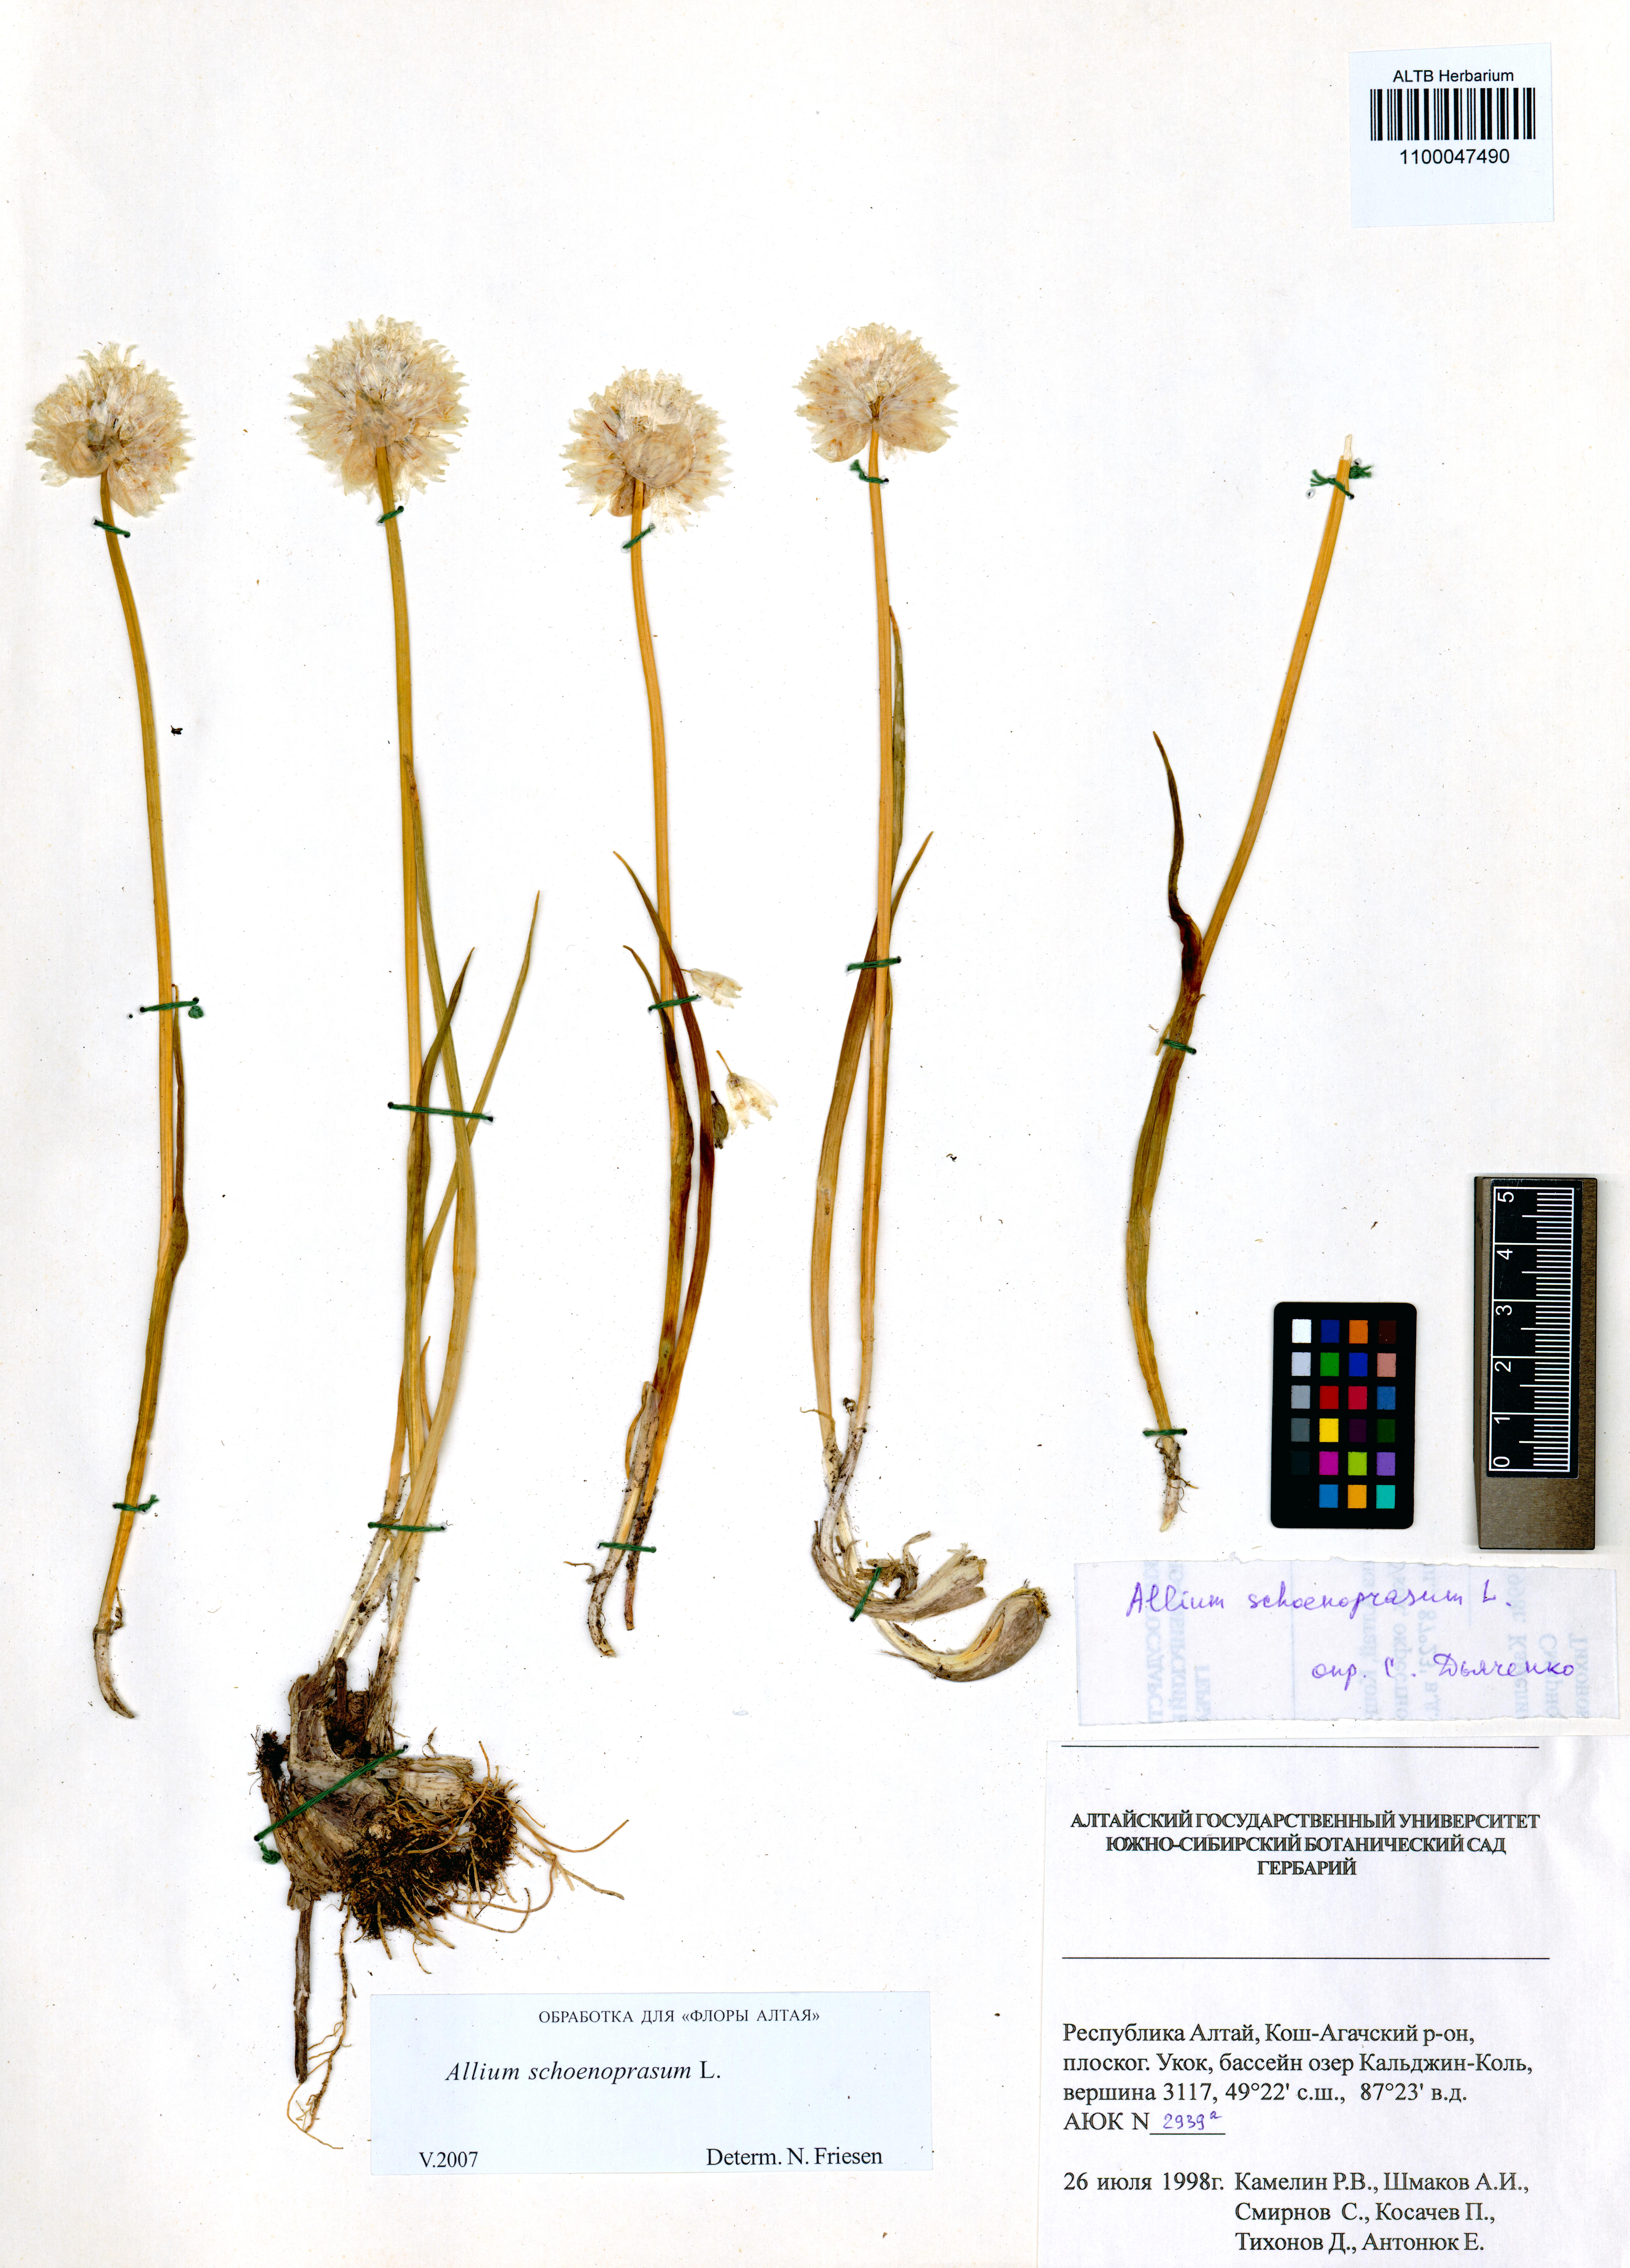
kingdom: Plantae
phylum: Tracheophyta
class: Liliopsida
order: Asparagales
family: Amaryllidaceae
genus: Allium
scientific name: Allium schoenoprasum
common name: Chives
